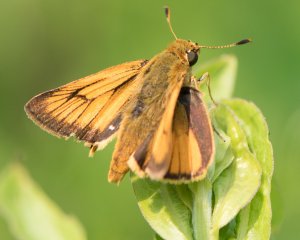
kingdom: Animalia
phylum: Arthropoda
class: Insecta
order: Lepidoptera
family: Hesperiidae
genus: Atrytone
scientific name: Atrytone delaware
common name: Delaware Skipper
